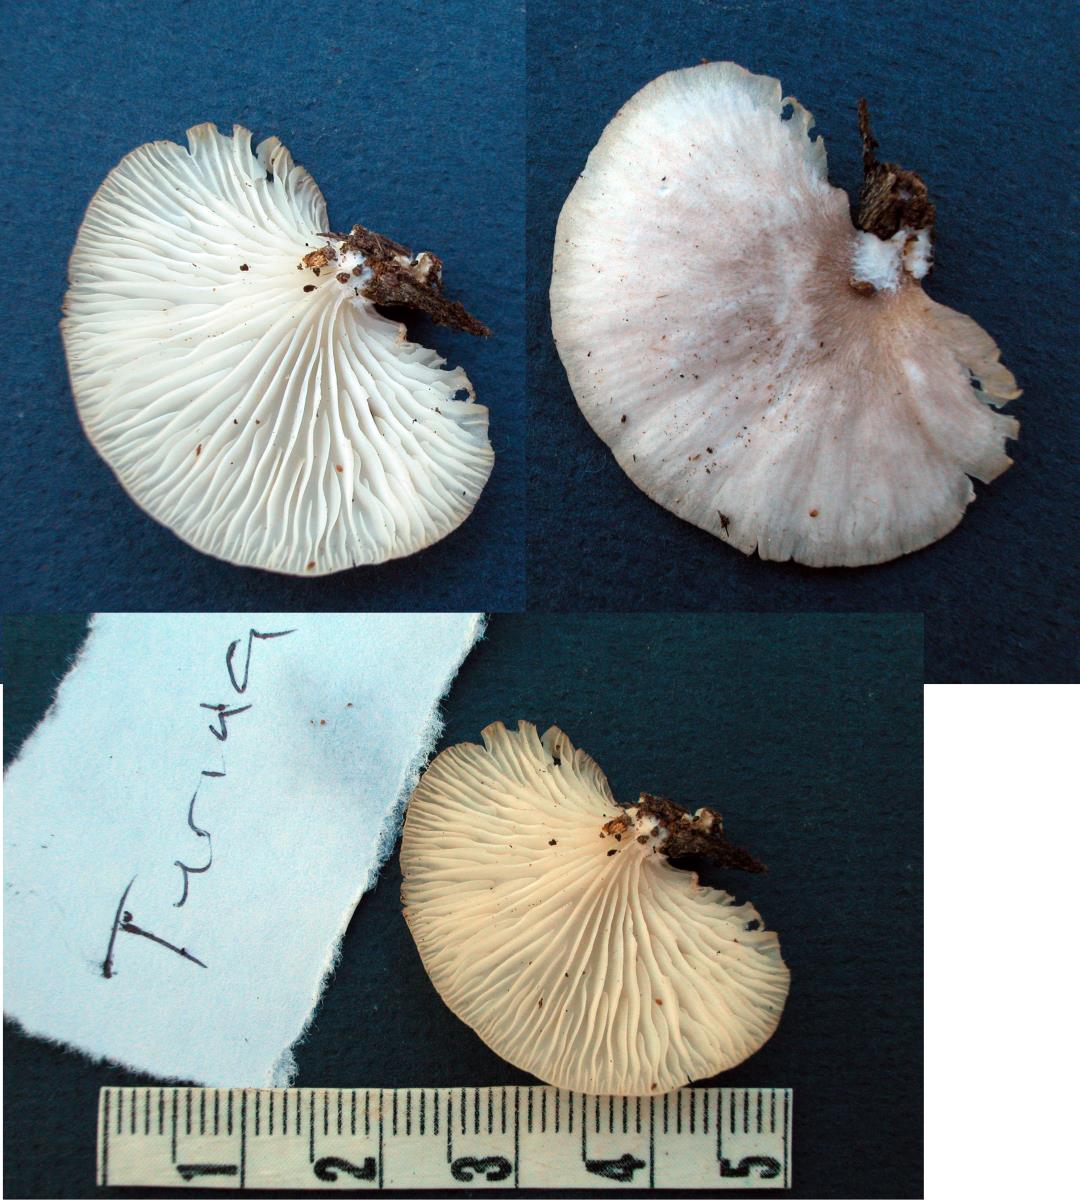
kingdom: Fungi
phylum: Basidiomycota
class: Agaricomycetes
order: Agaricales
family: Pleurotaceae
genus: Pleurotus
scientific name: Pleurotus djamor
